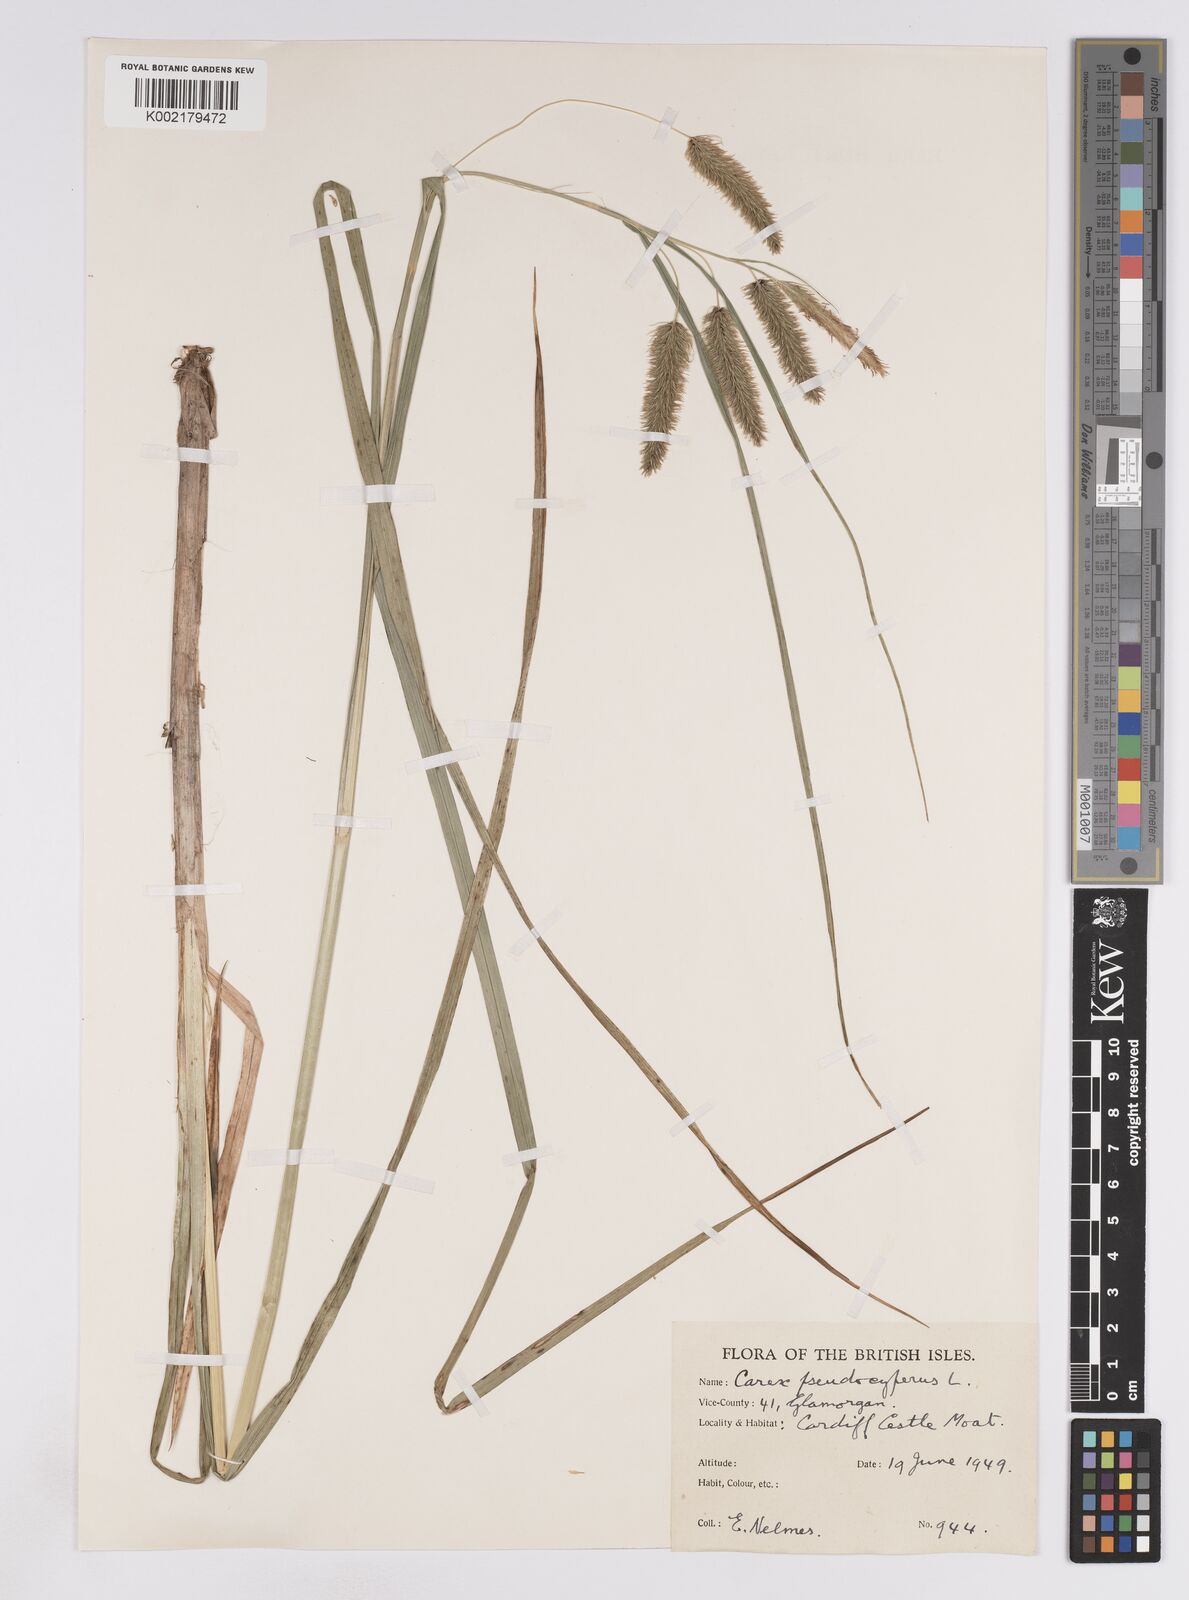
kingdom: Plantae
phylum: Tracheophyta
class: Liliopsida
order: Poales
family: Cyperaceae
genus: Carex
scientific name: Carex pseudocyperus
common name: Cyperus sedge
